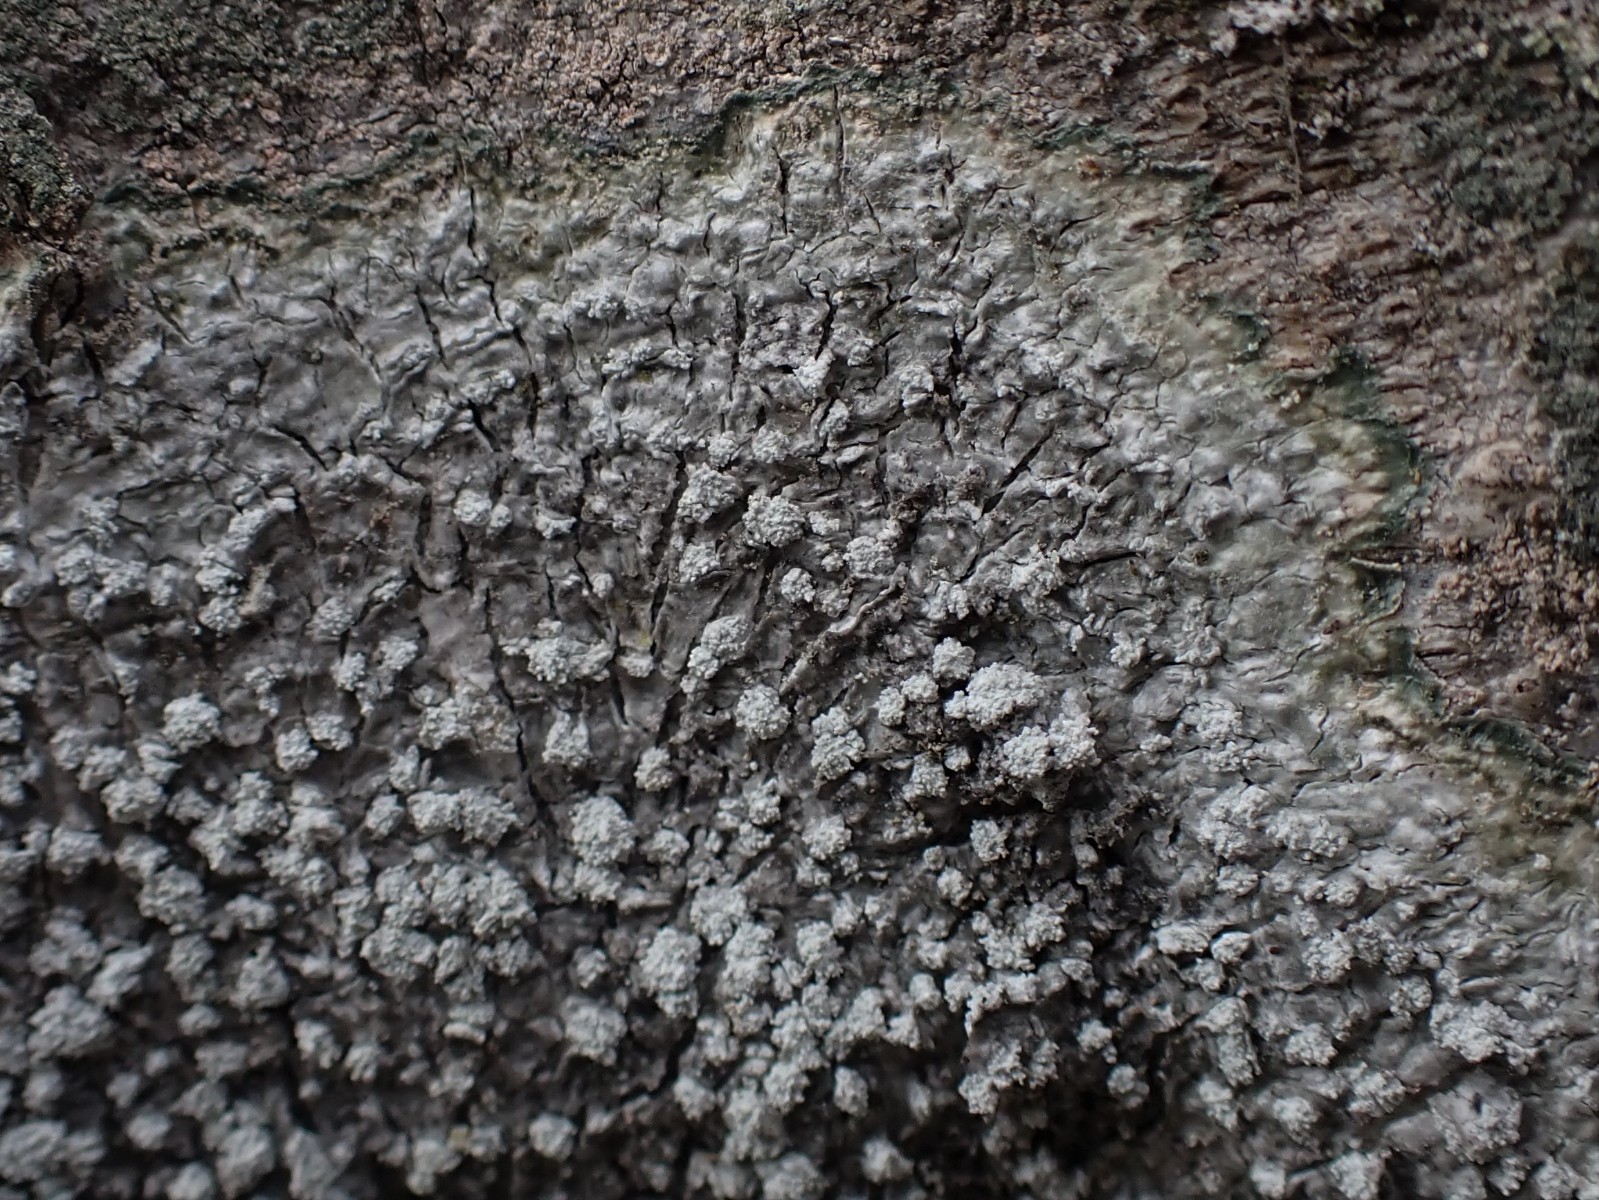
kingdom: Fungi
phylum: Ascomycota
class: Lecanoromycetes
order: Pertusariales
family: Pertusariaceae
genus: Lepra
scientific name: Lepra amara
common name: bitter prikvortelav
